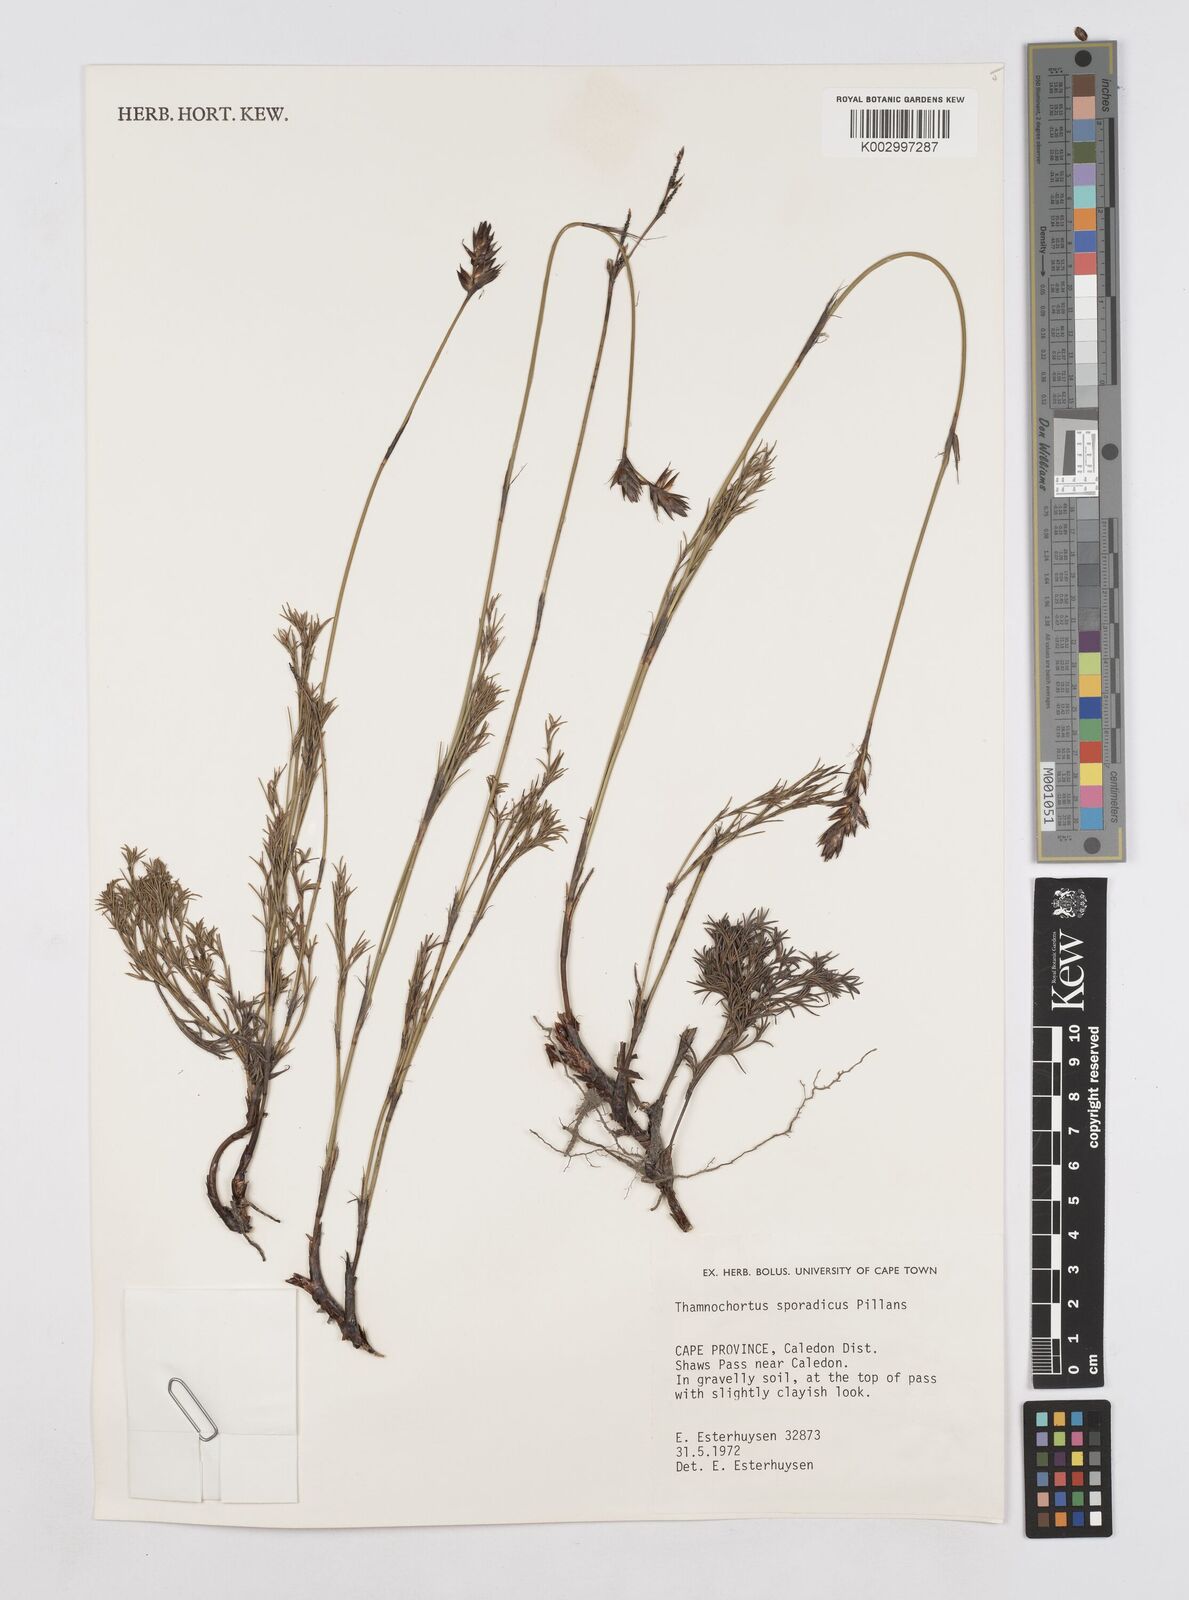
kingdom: Plantae
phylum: Tracheophyta
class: Liliopsida
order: Poales
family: Restionaceae
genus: Thamnochortus
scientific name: Thamnochortus sporadicus
